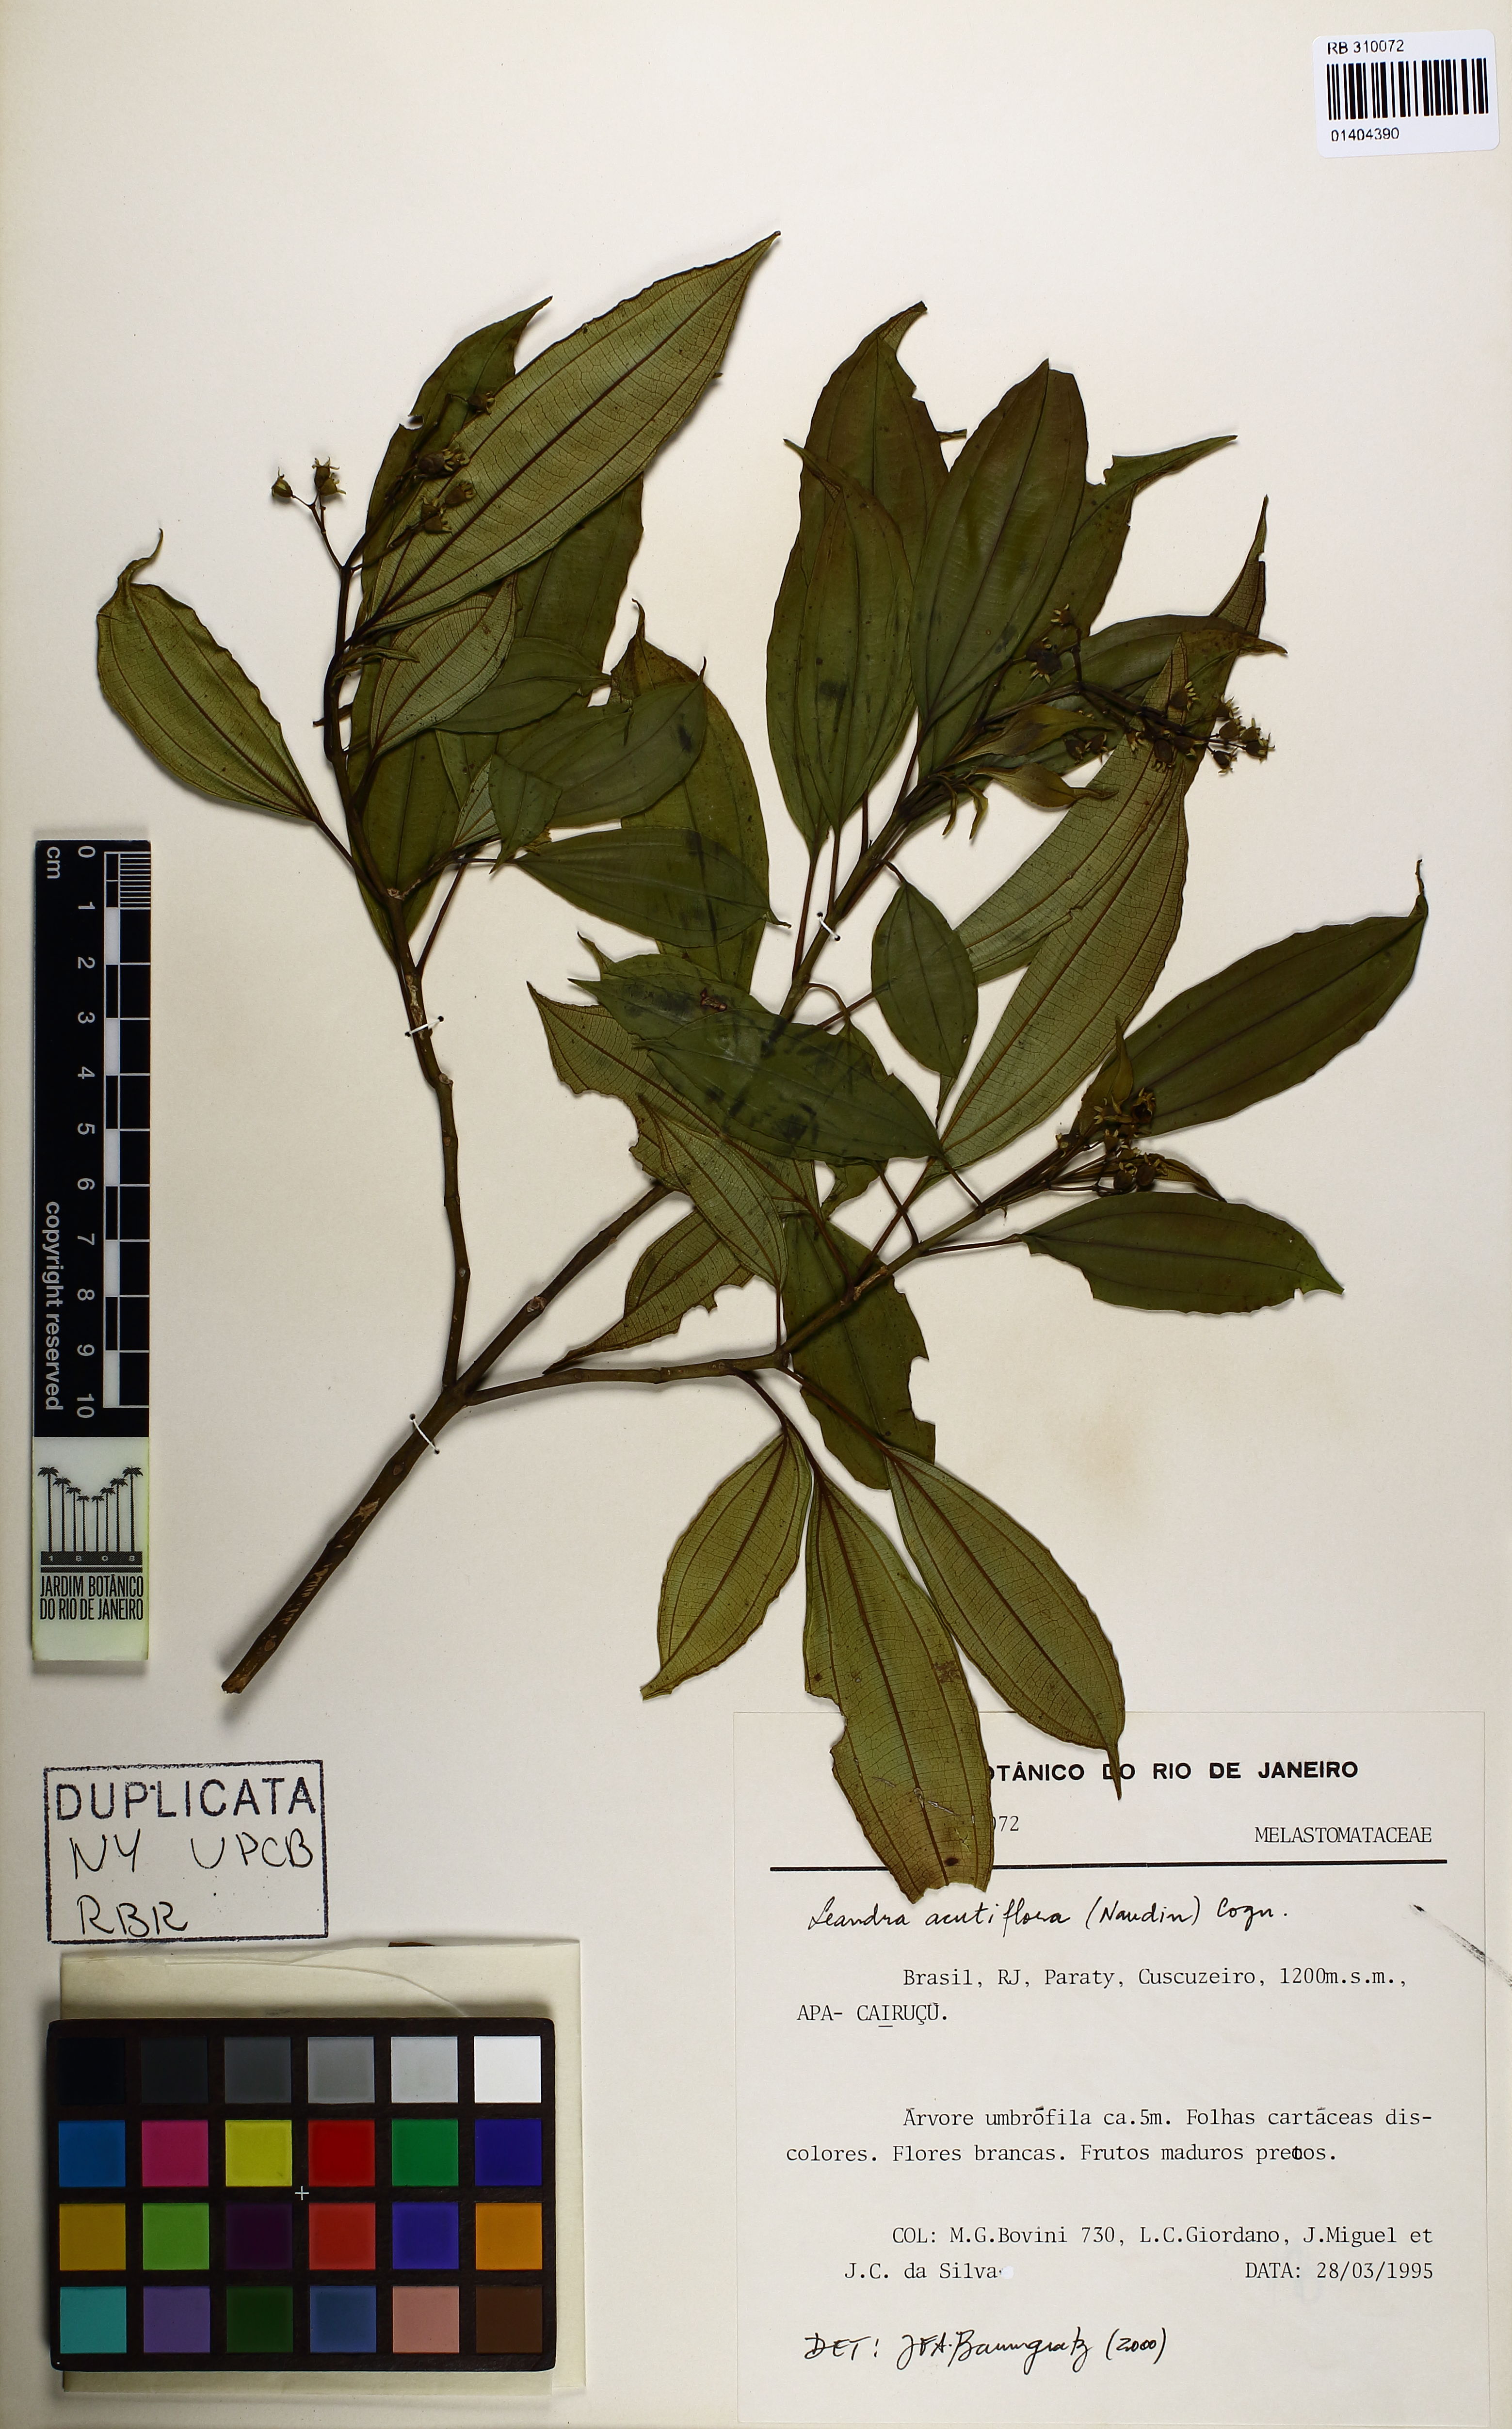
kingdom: Plantae
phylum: Tracheophyta
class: Magnoliopsida
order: Myrtales
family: Melastomataceae
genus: Miconia
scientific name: Miconia acutiflora
